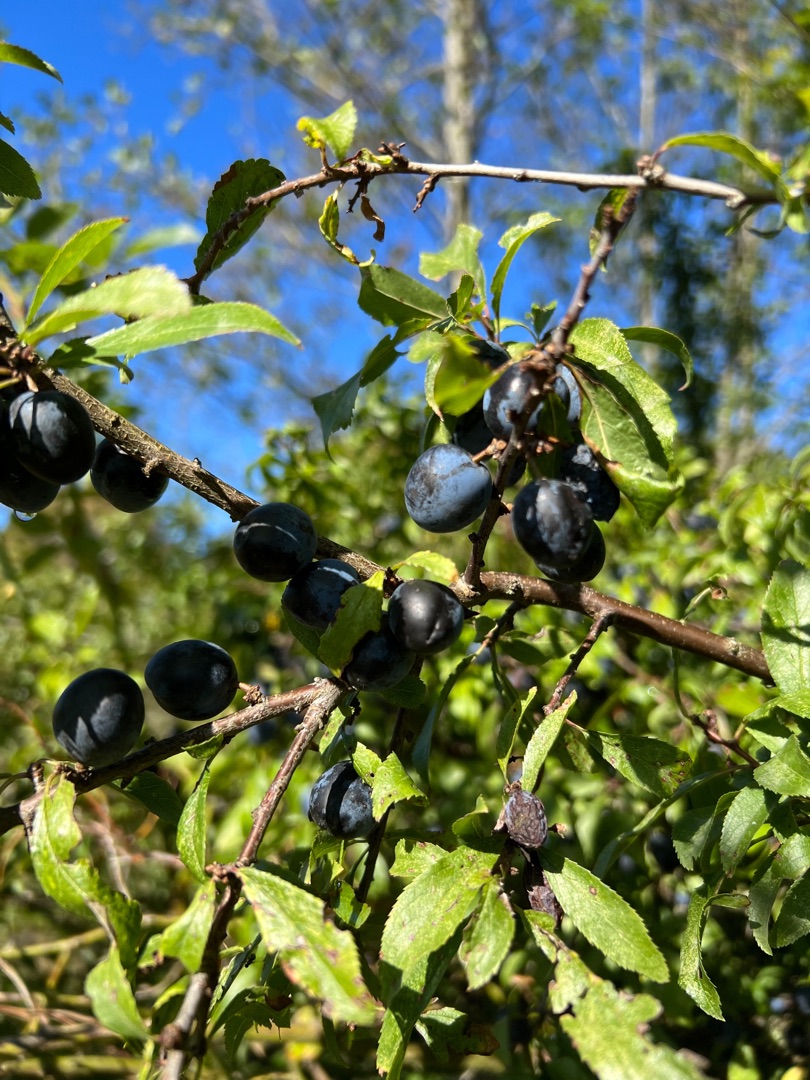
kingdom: Plantae
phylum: Tracheophyta
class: Magnoliopsida
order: Rosales
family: Rosaceae
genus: Prunus
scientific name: Prunus spinosa
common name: Slåen
